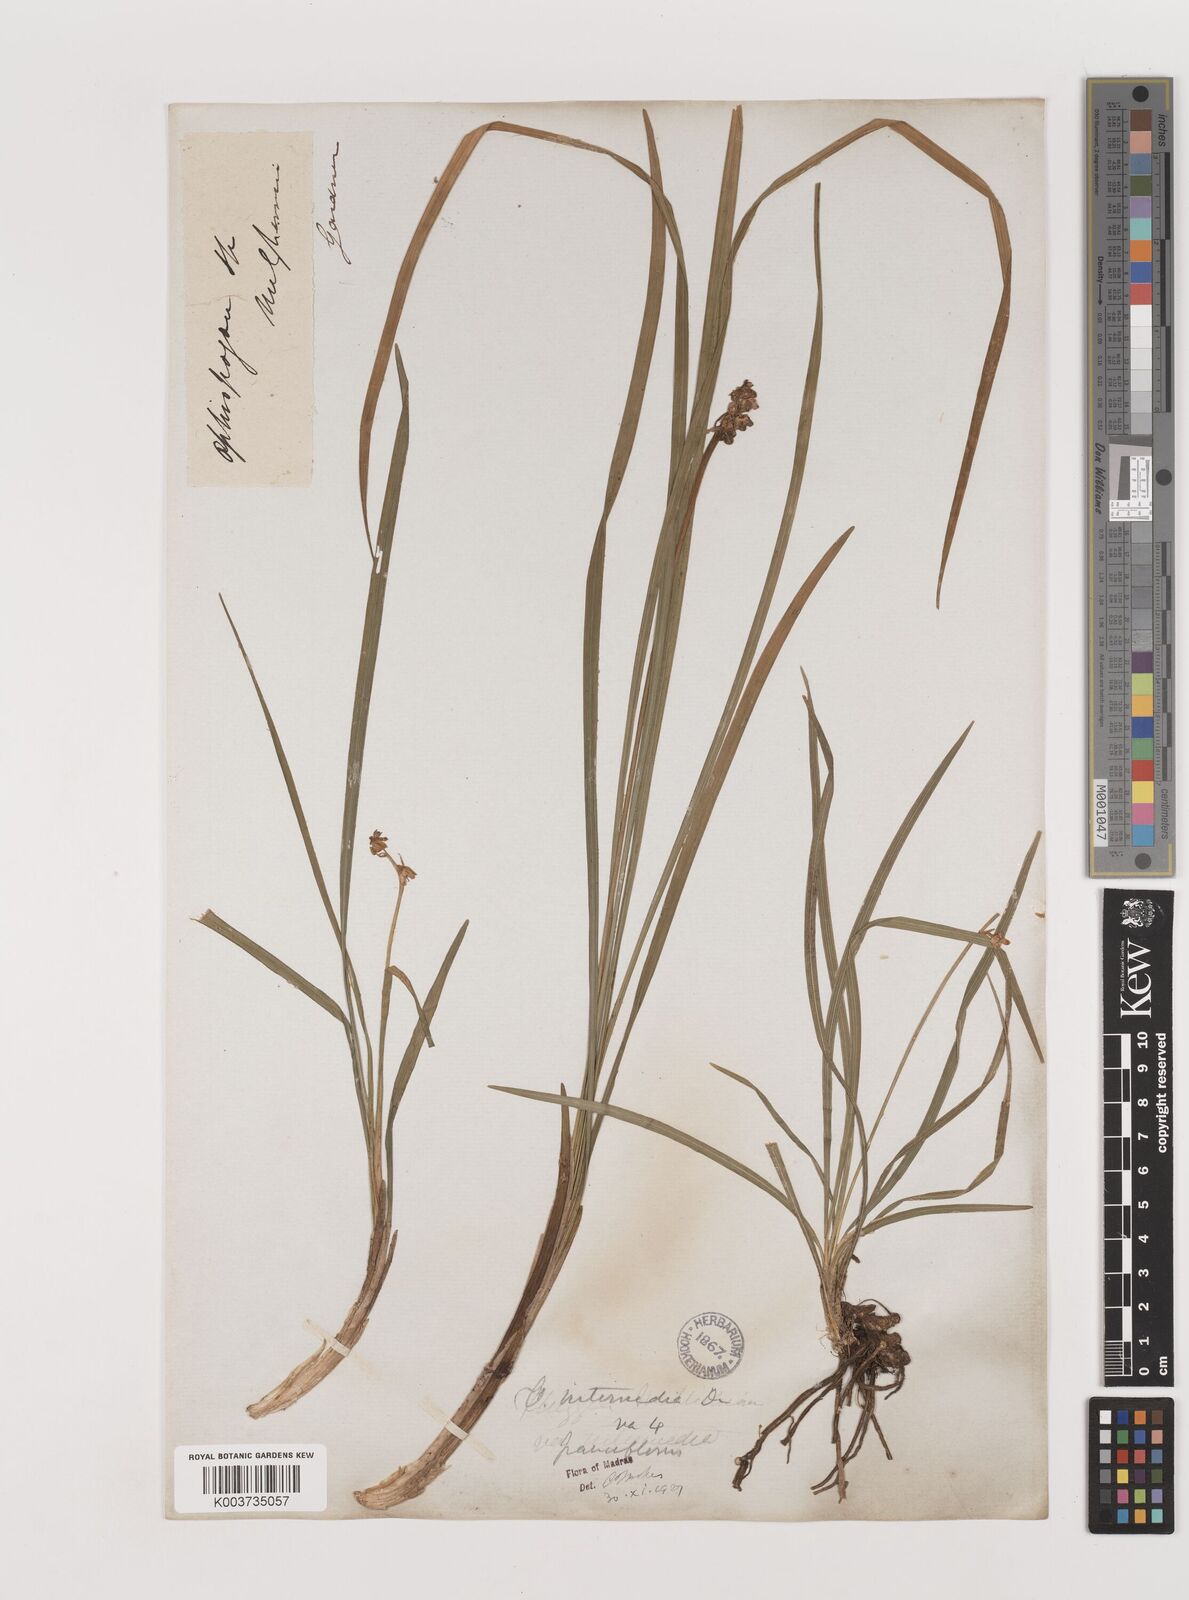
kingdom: Plantae
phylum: Tracheophyta
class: Liliopsida
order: Asparagales
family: Asparagaceae
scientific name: Asparagaceae
